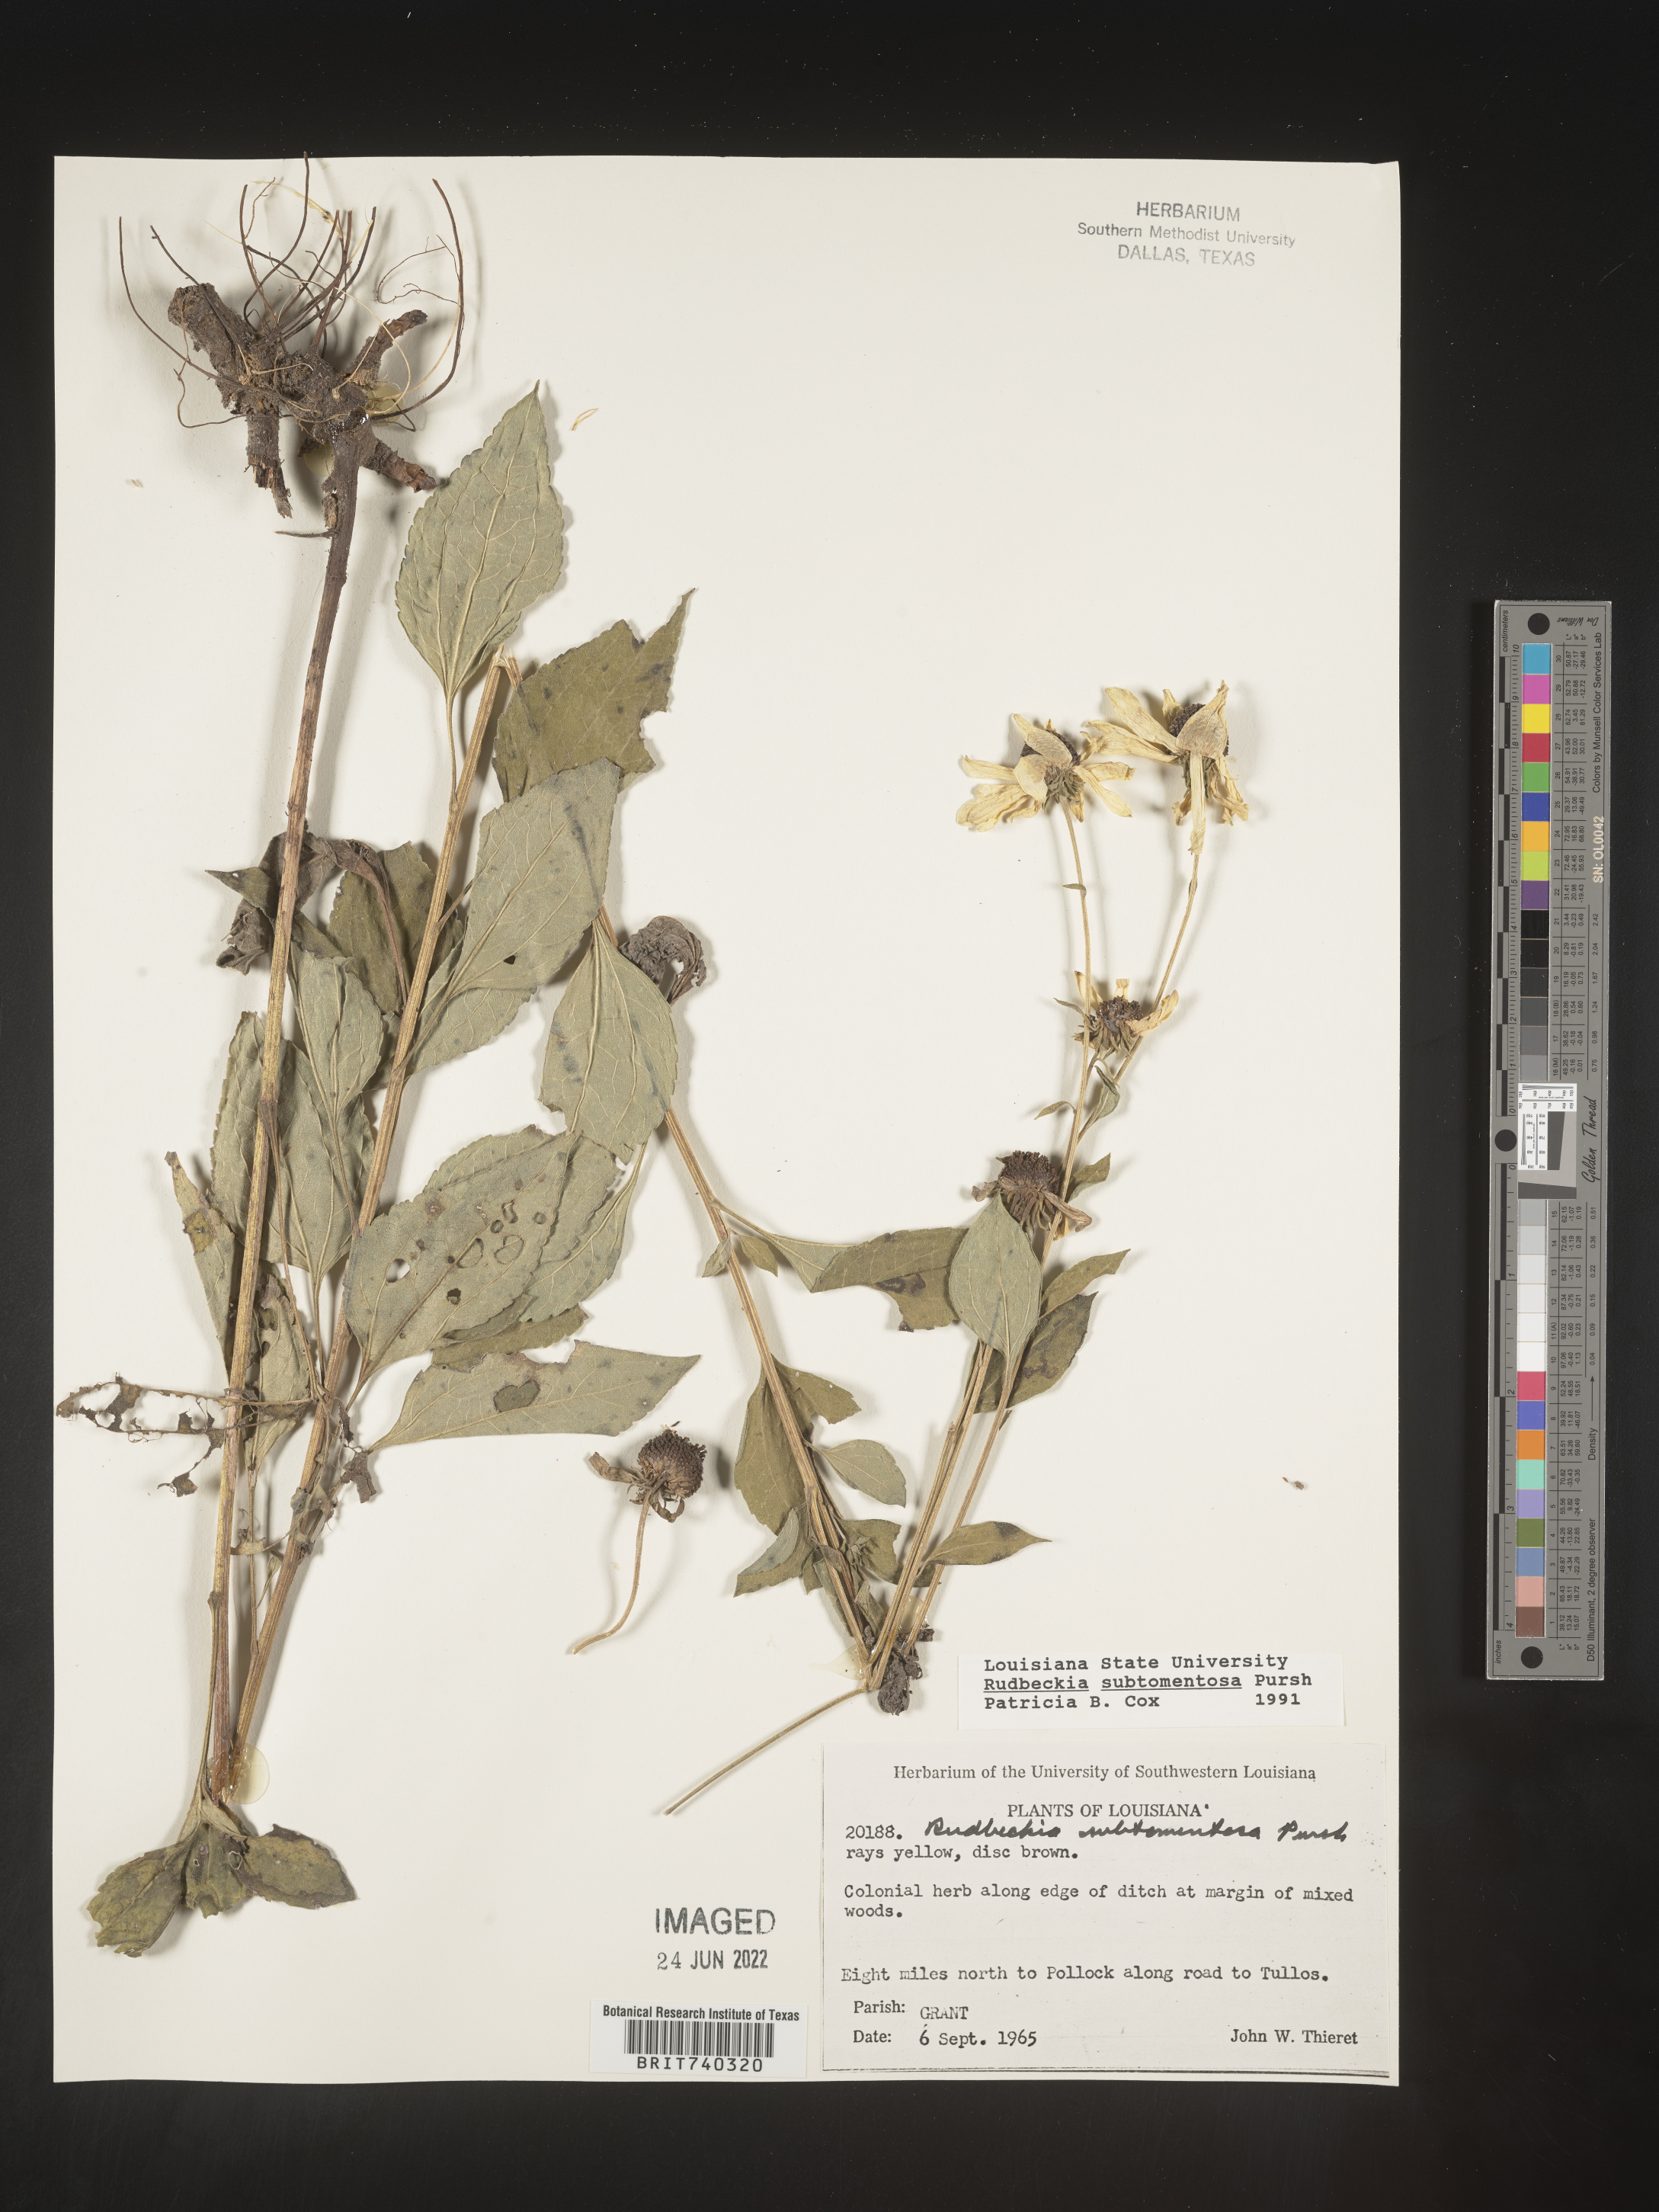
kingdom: Plantae
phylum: Tracheophyta
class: Magnoliopsida
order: Asterales
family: Asteraceae
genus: Rudbeckia
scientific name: Rudbeckia subtomentosa
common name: Sweet coneflower
